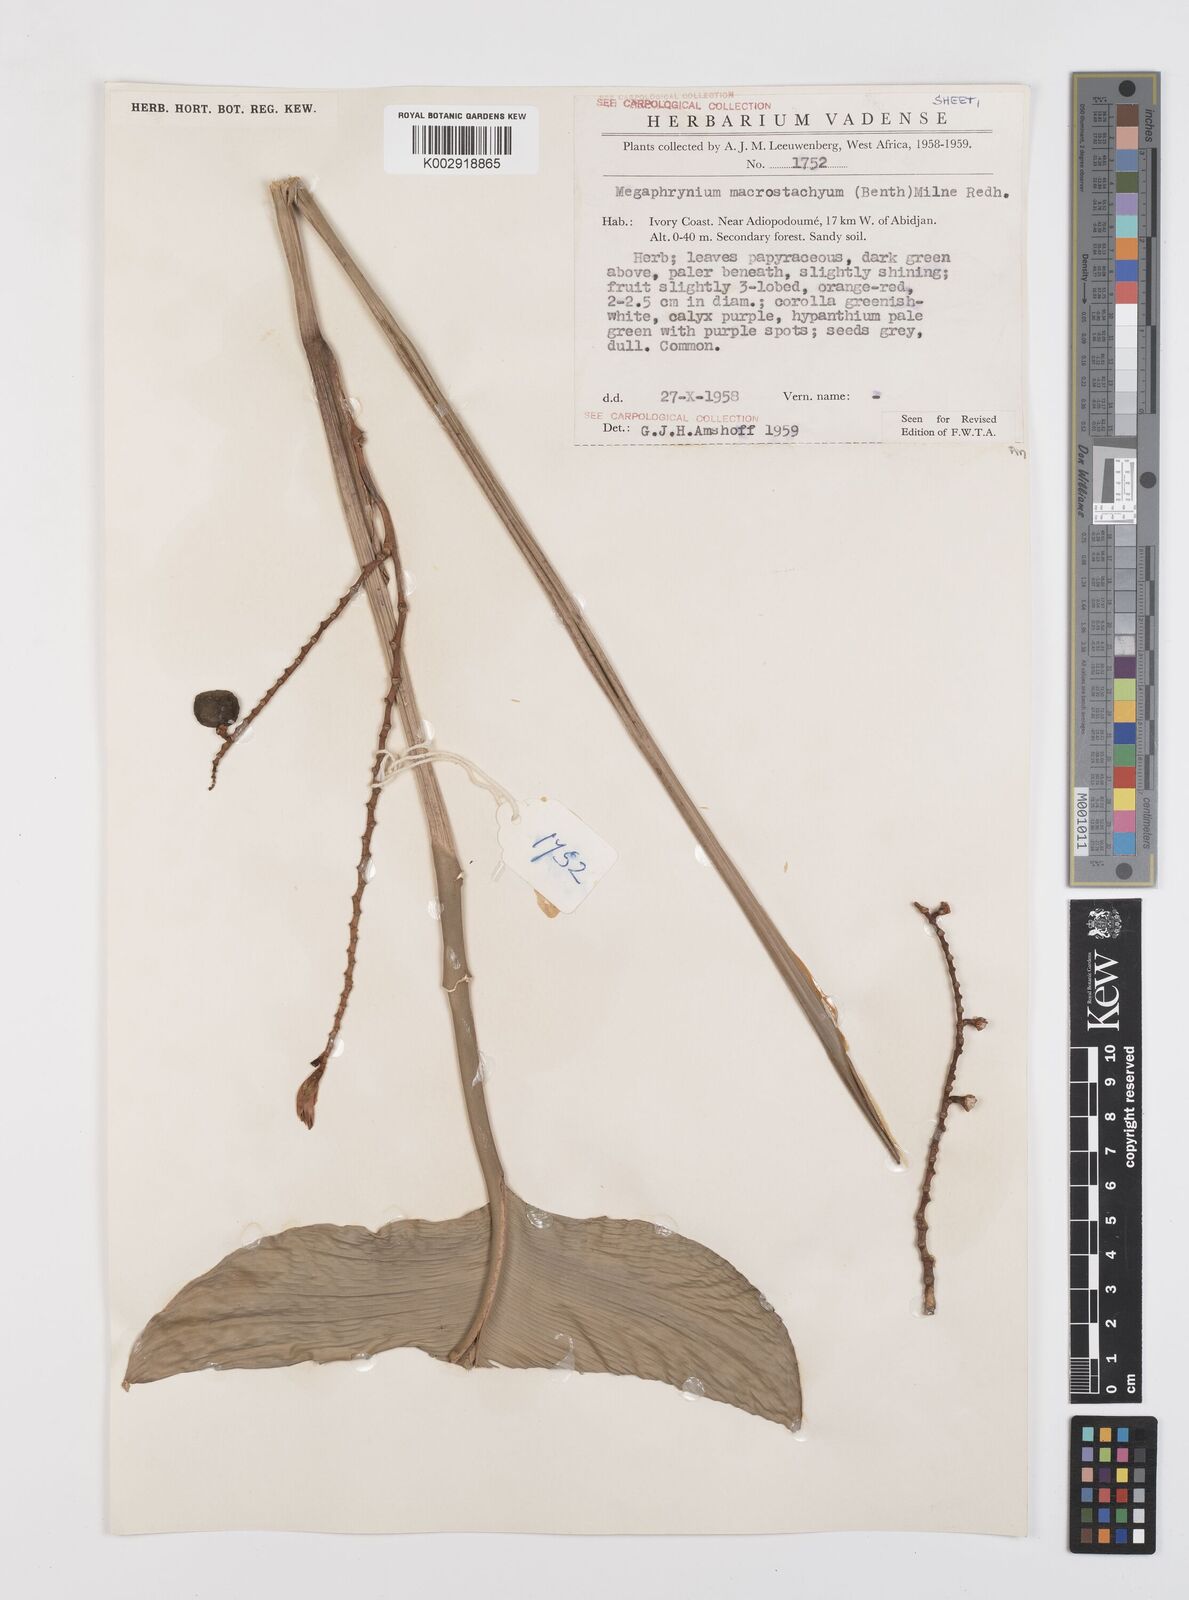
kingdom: Plantae
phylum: Tracheophyta
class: Liliopsida
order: Zingiberales
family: Marantaceae
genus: Megaphrynium
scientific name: Megaphrynium macrostachyum
